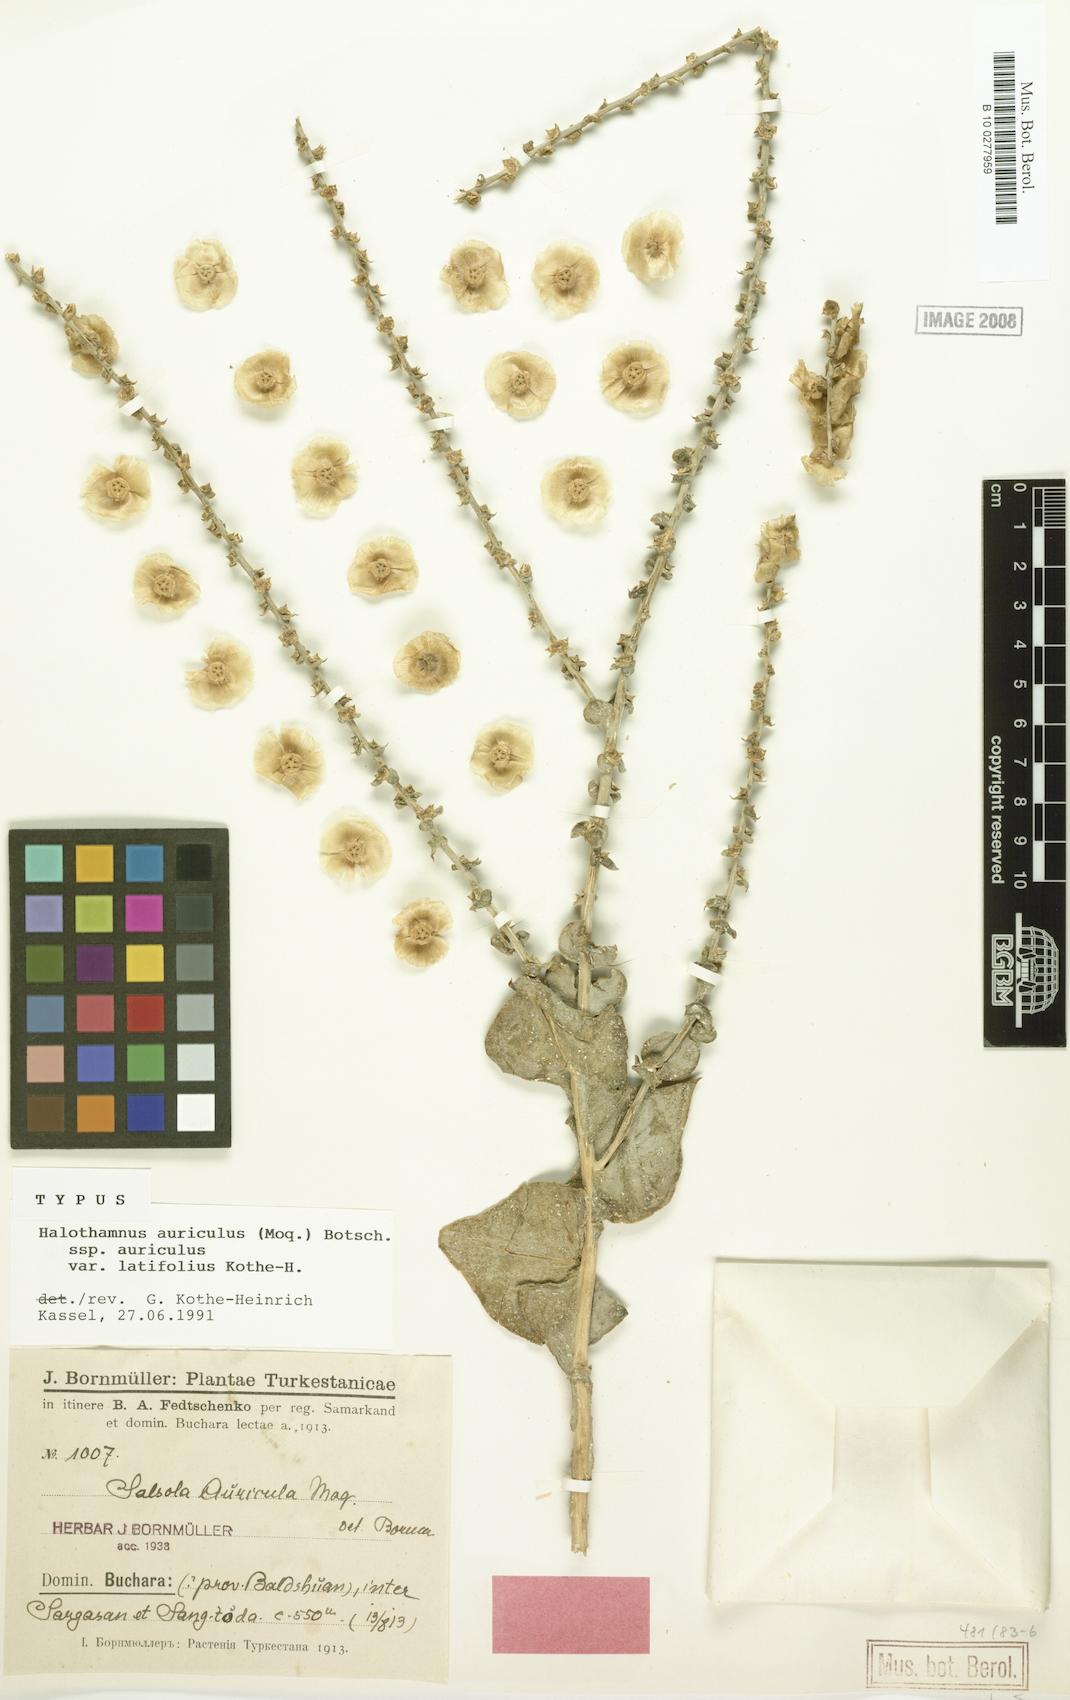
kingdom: Plantae
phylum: Tracheophyta
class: Magnoliopsida
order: Caryophyllales
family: Amaranthaceae
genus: Halothamnus
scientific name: Halothamnus auriculus
